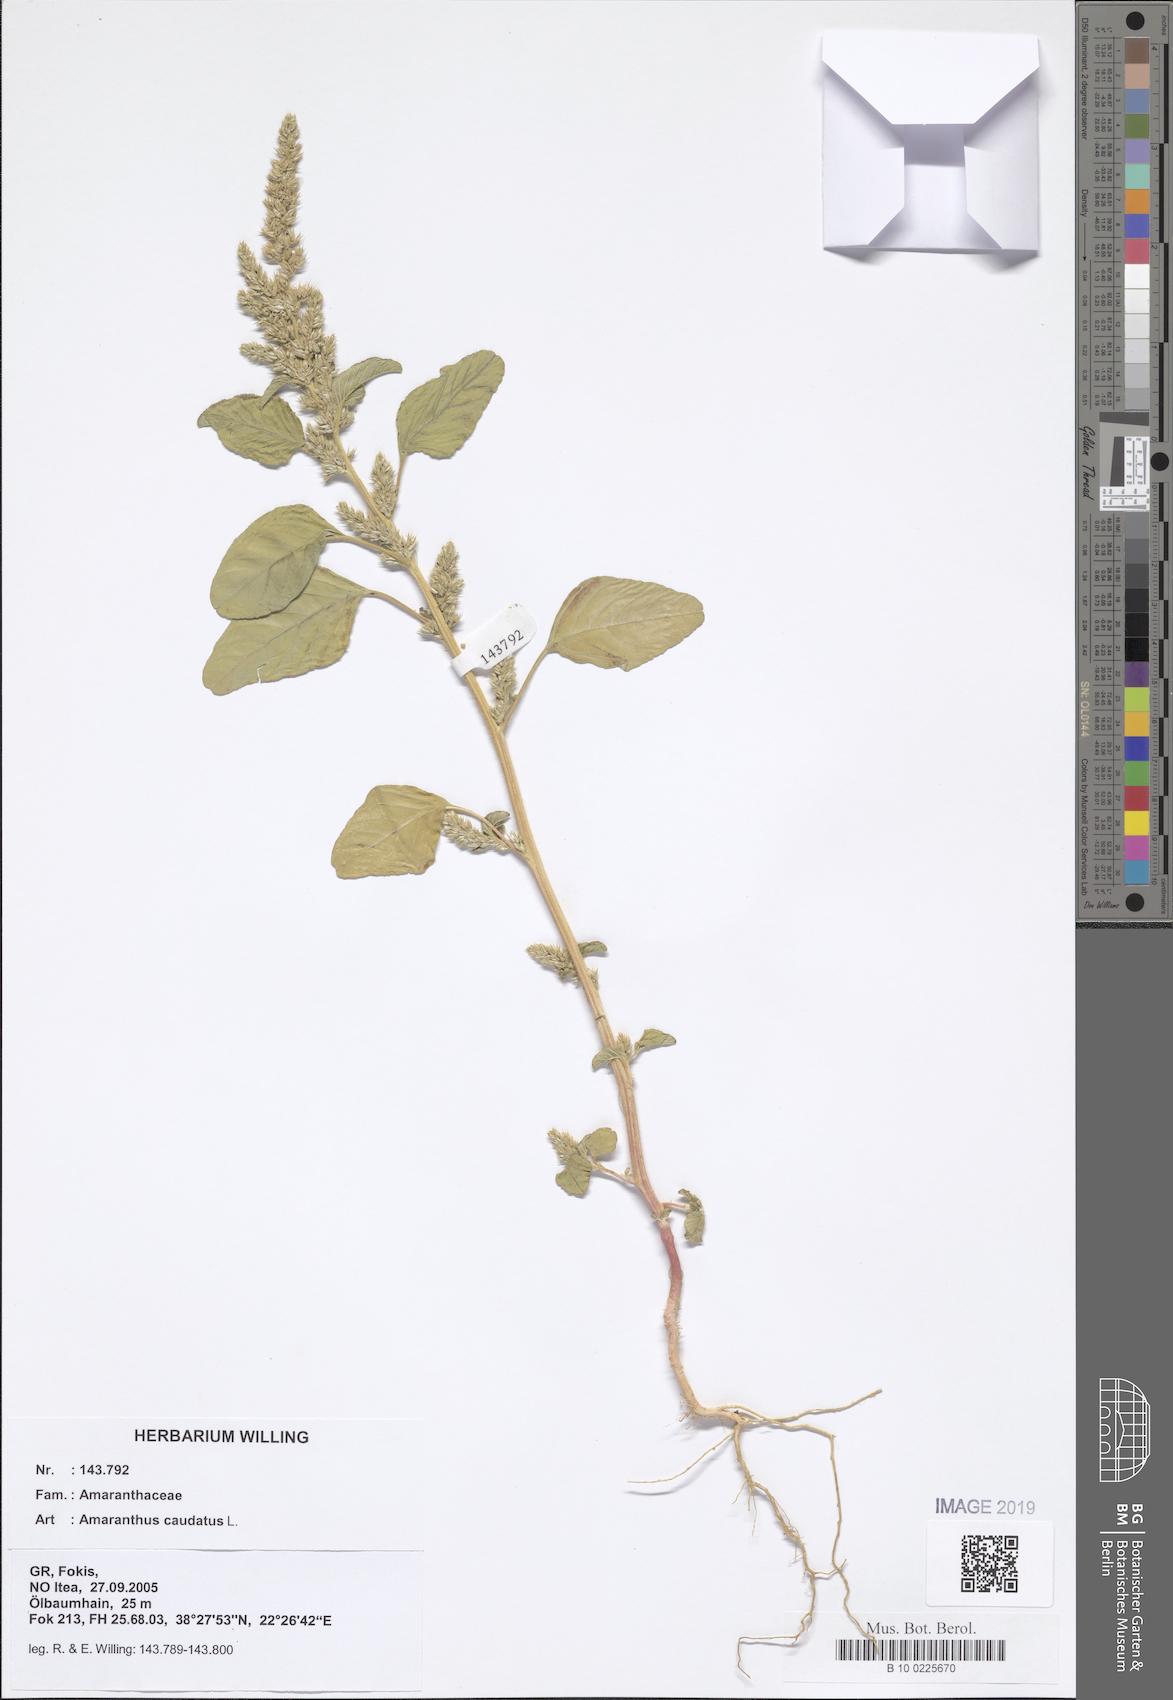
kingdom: Plantae
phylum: Tracheophyta
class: Magnoliopsida
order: Caryophyllales
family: Amaranthaceae
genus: Amaranthus
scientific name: Amaranthus caudatus
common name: Love-lies-bleeding
